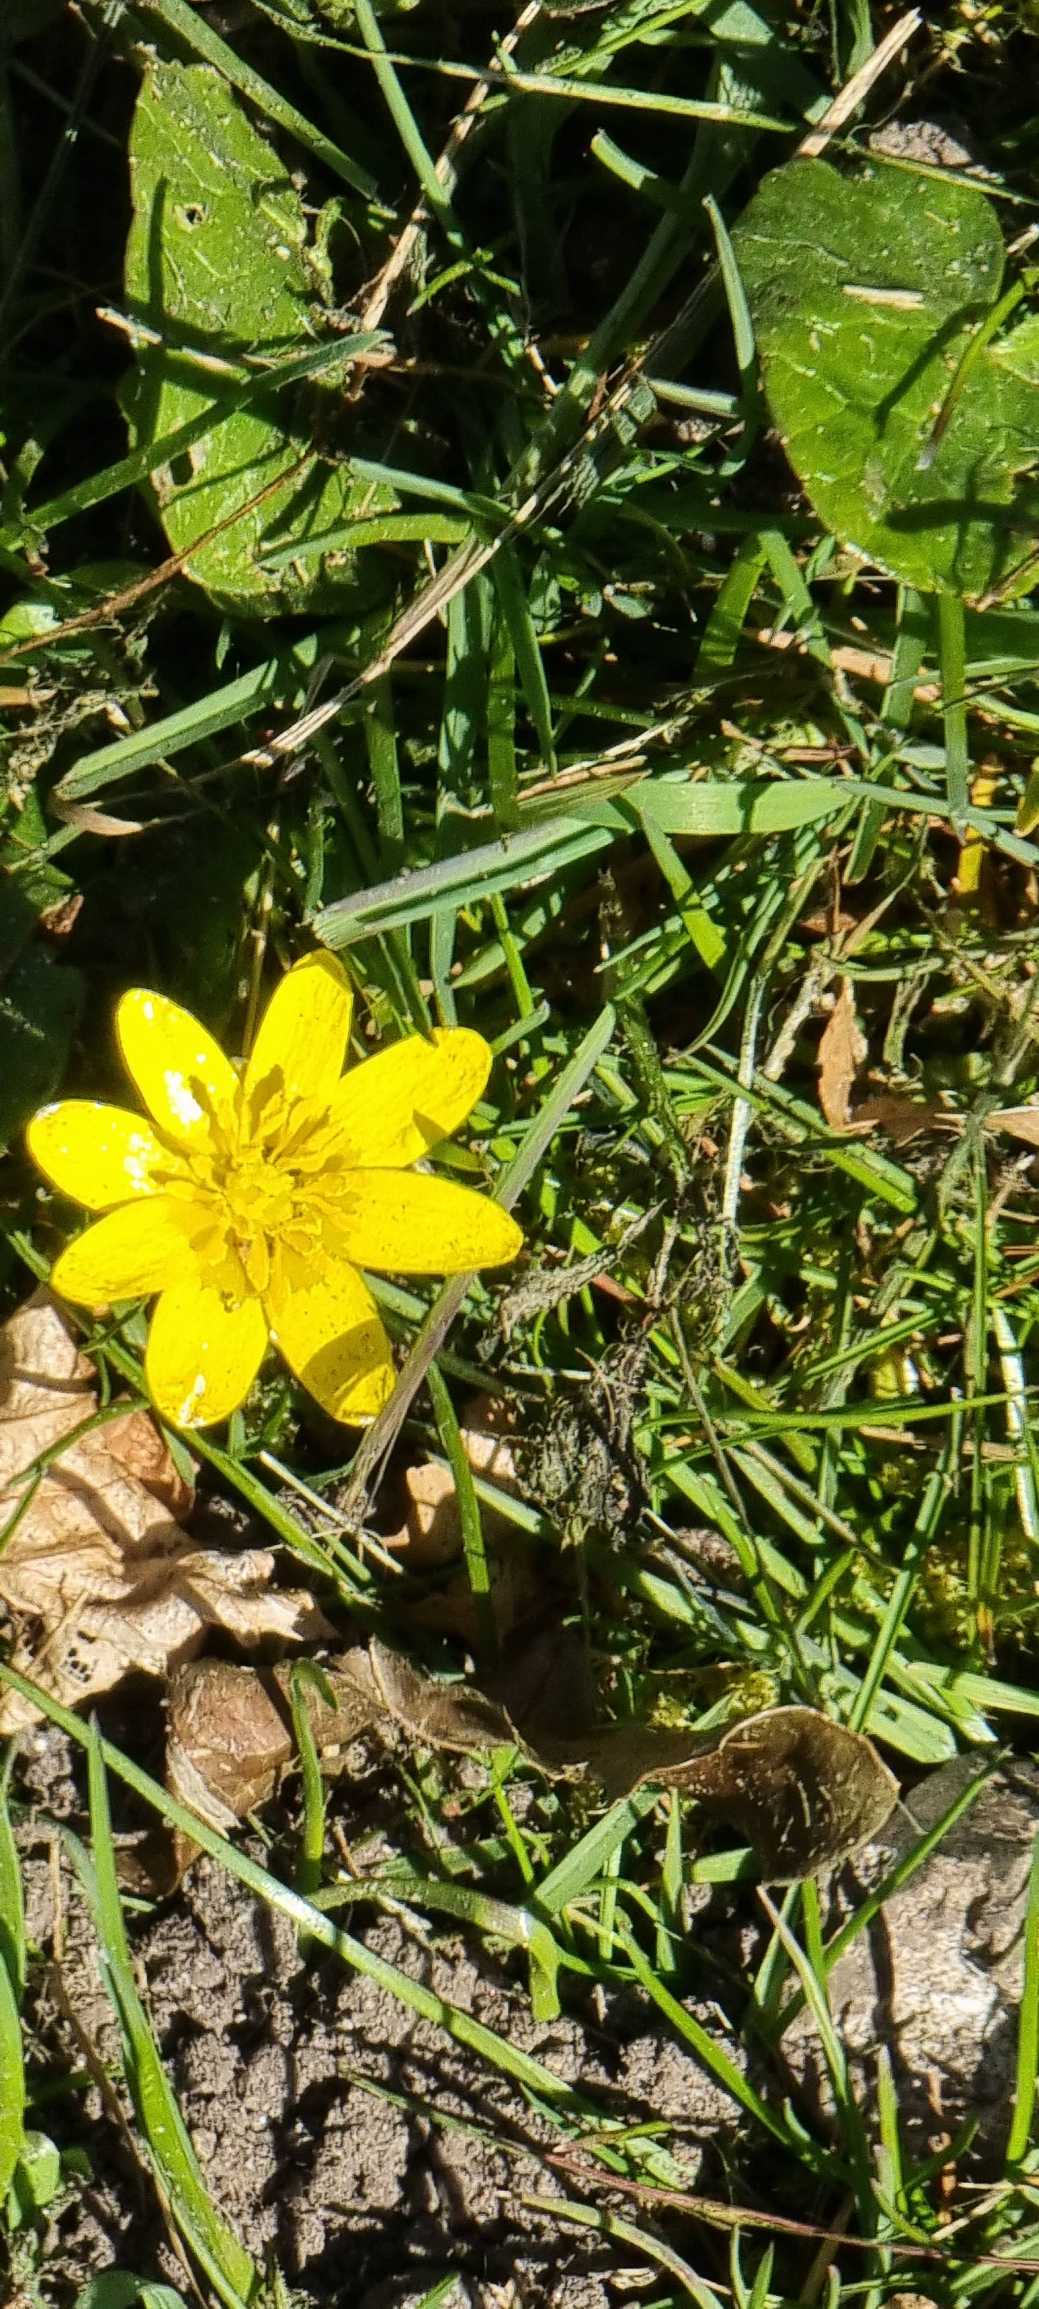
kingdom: Plantae
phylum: Tracheophyta
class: Magnoliopsida
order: Ranunculales
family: Ranunculaceae
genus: Ficaria
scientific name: Ficaria verna
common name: Vorterod
